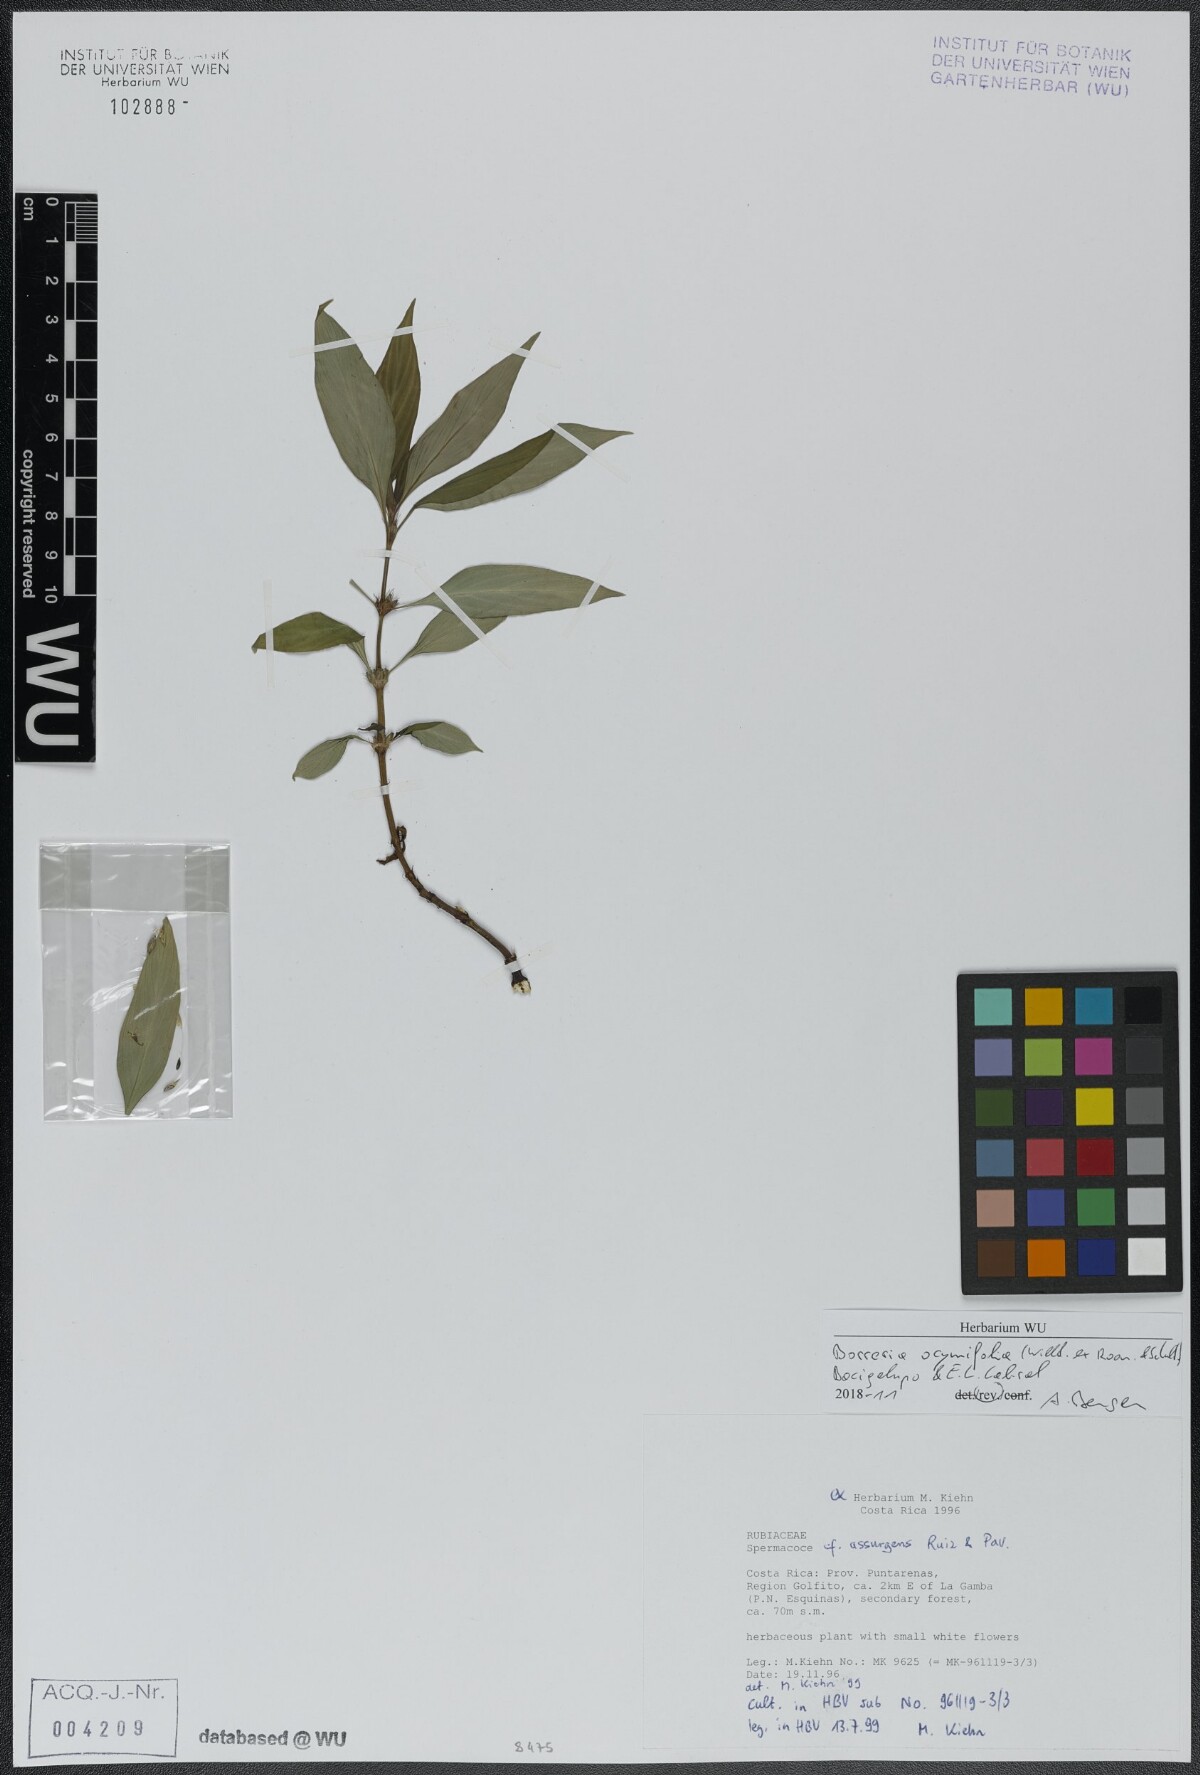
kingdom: Plantae
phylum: Tracheophyta
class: Magnoliopsida
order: Gentianales
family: Rubiaceae
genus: Spermacoce
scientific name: Spermacoce ocymifolia
